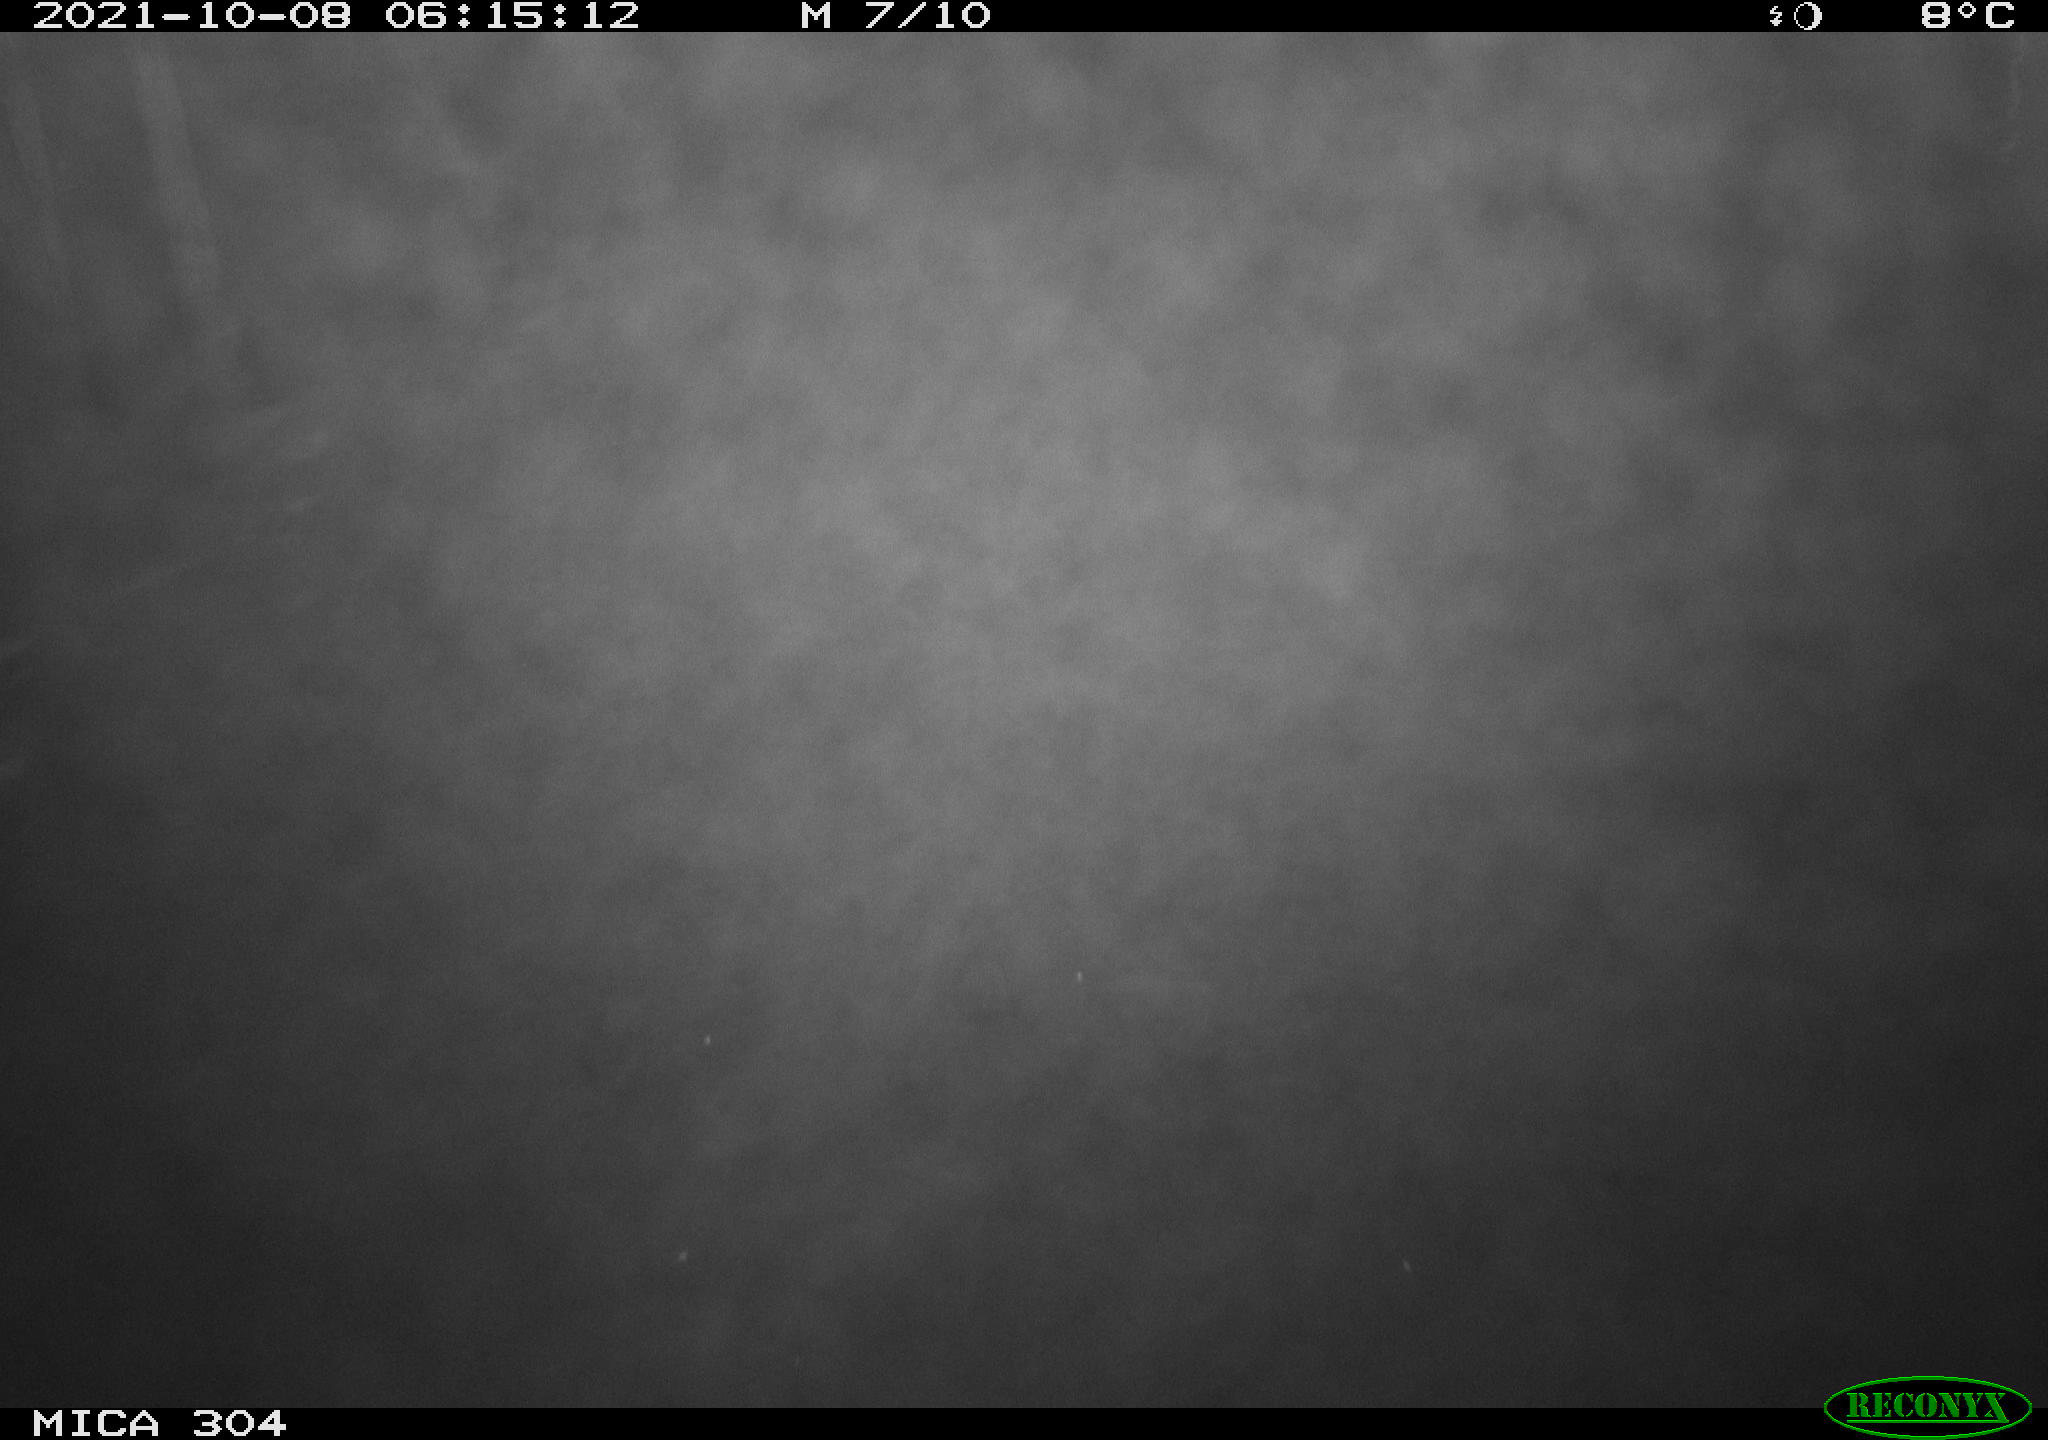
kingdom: Animalia
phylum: Chordata
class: Mammalia
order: Rodentia
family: Cricetidae
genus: Ondatra
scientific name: Ondatra zibethicus
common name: Muskrat
